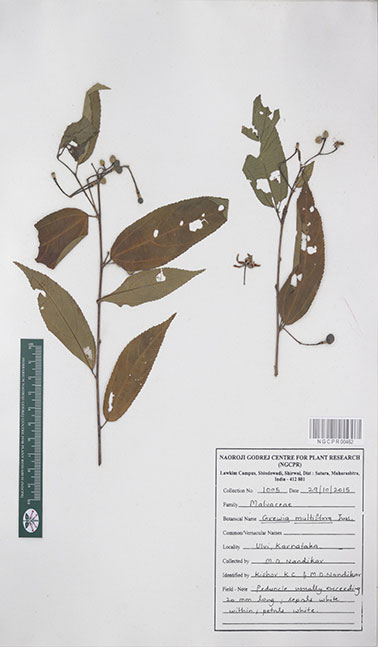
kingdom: Plantae
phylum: Tracheophyta
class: Magnoliopsida
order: Malvales
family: Malvaceae
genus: Grewia
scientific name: Grewia multiflora
